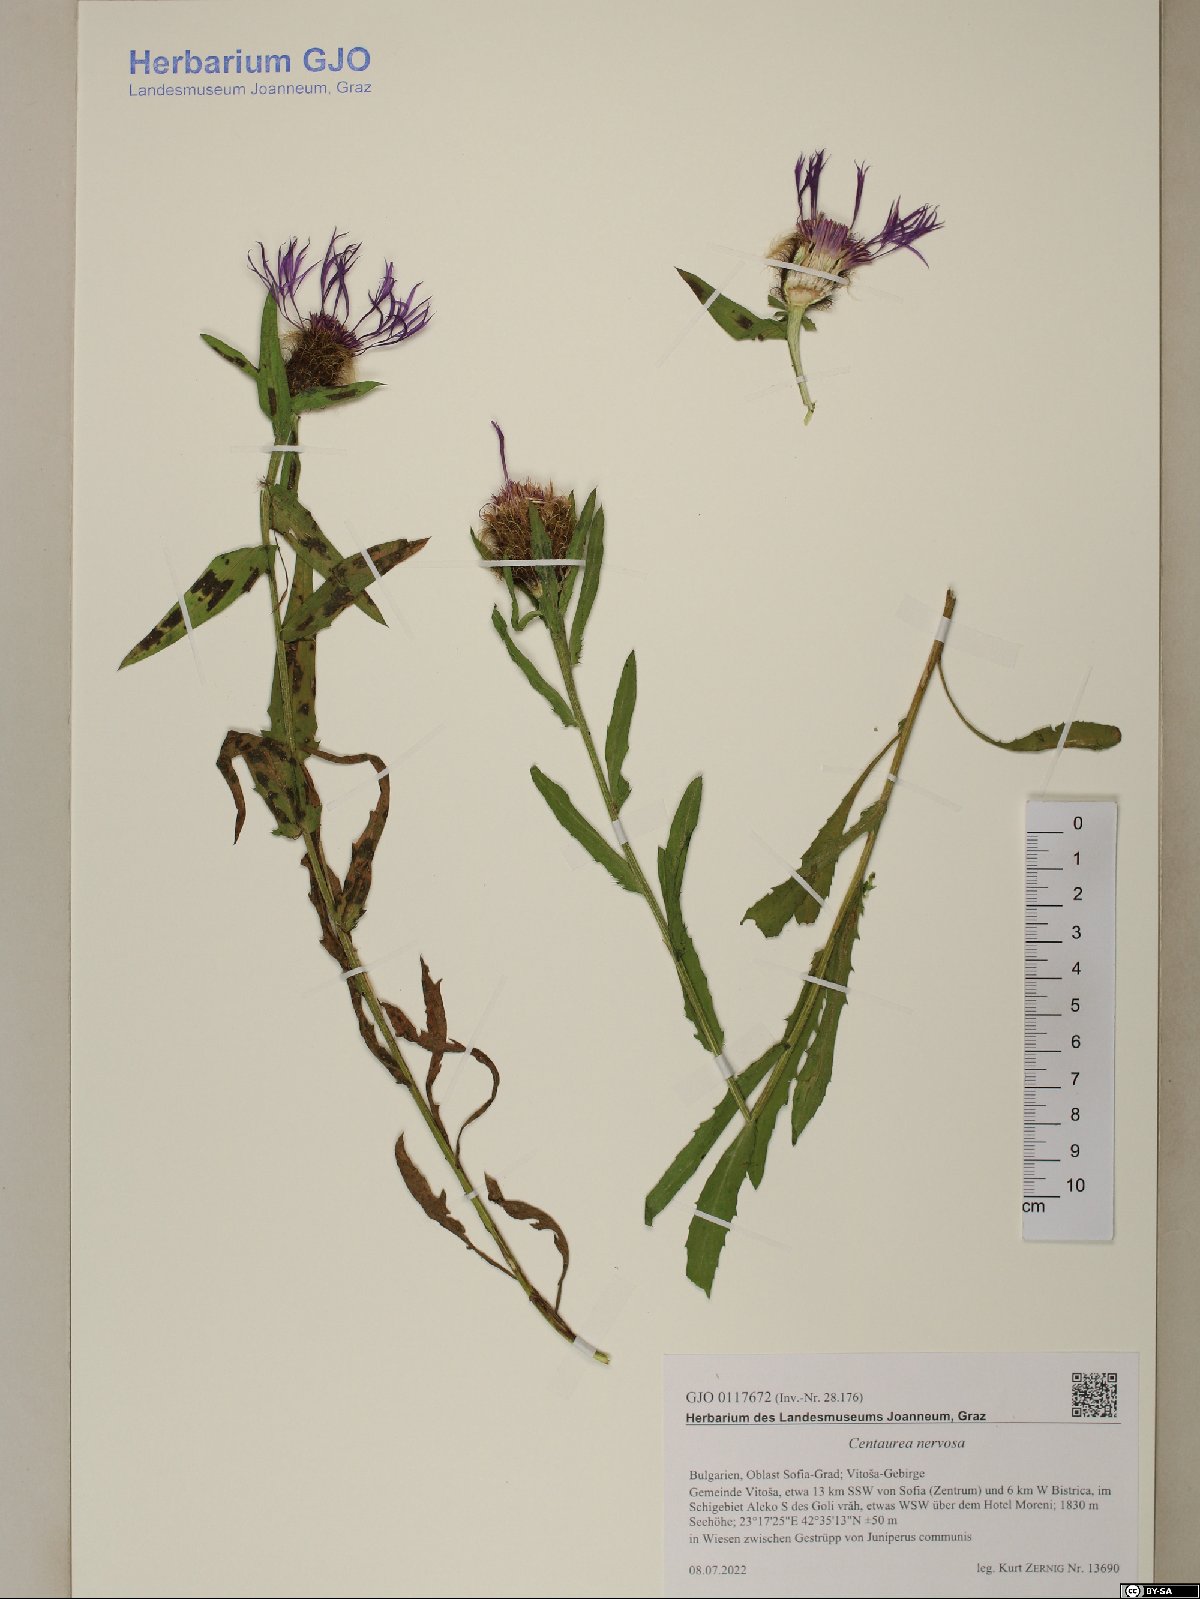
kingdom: Plantae
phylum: Tracheophyta
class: Magnoliopsida
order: Asterales
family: Asteraceae
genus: Centaurea
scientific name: Centaurea nervosa
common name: Singleflower knapweed
